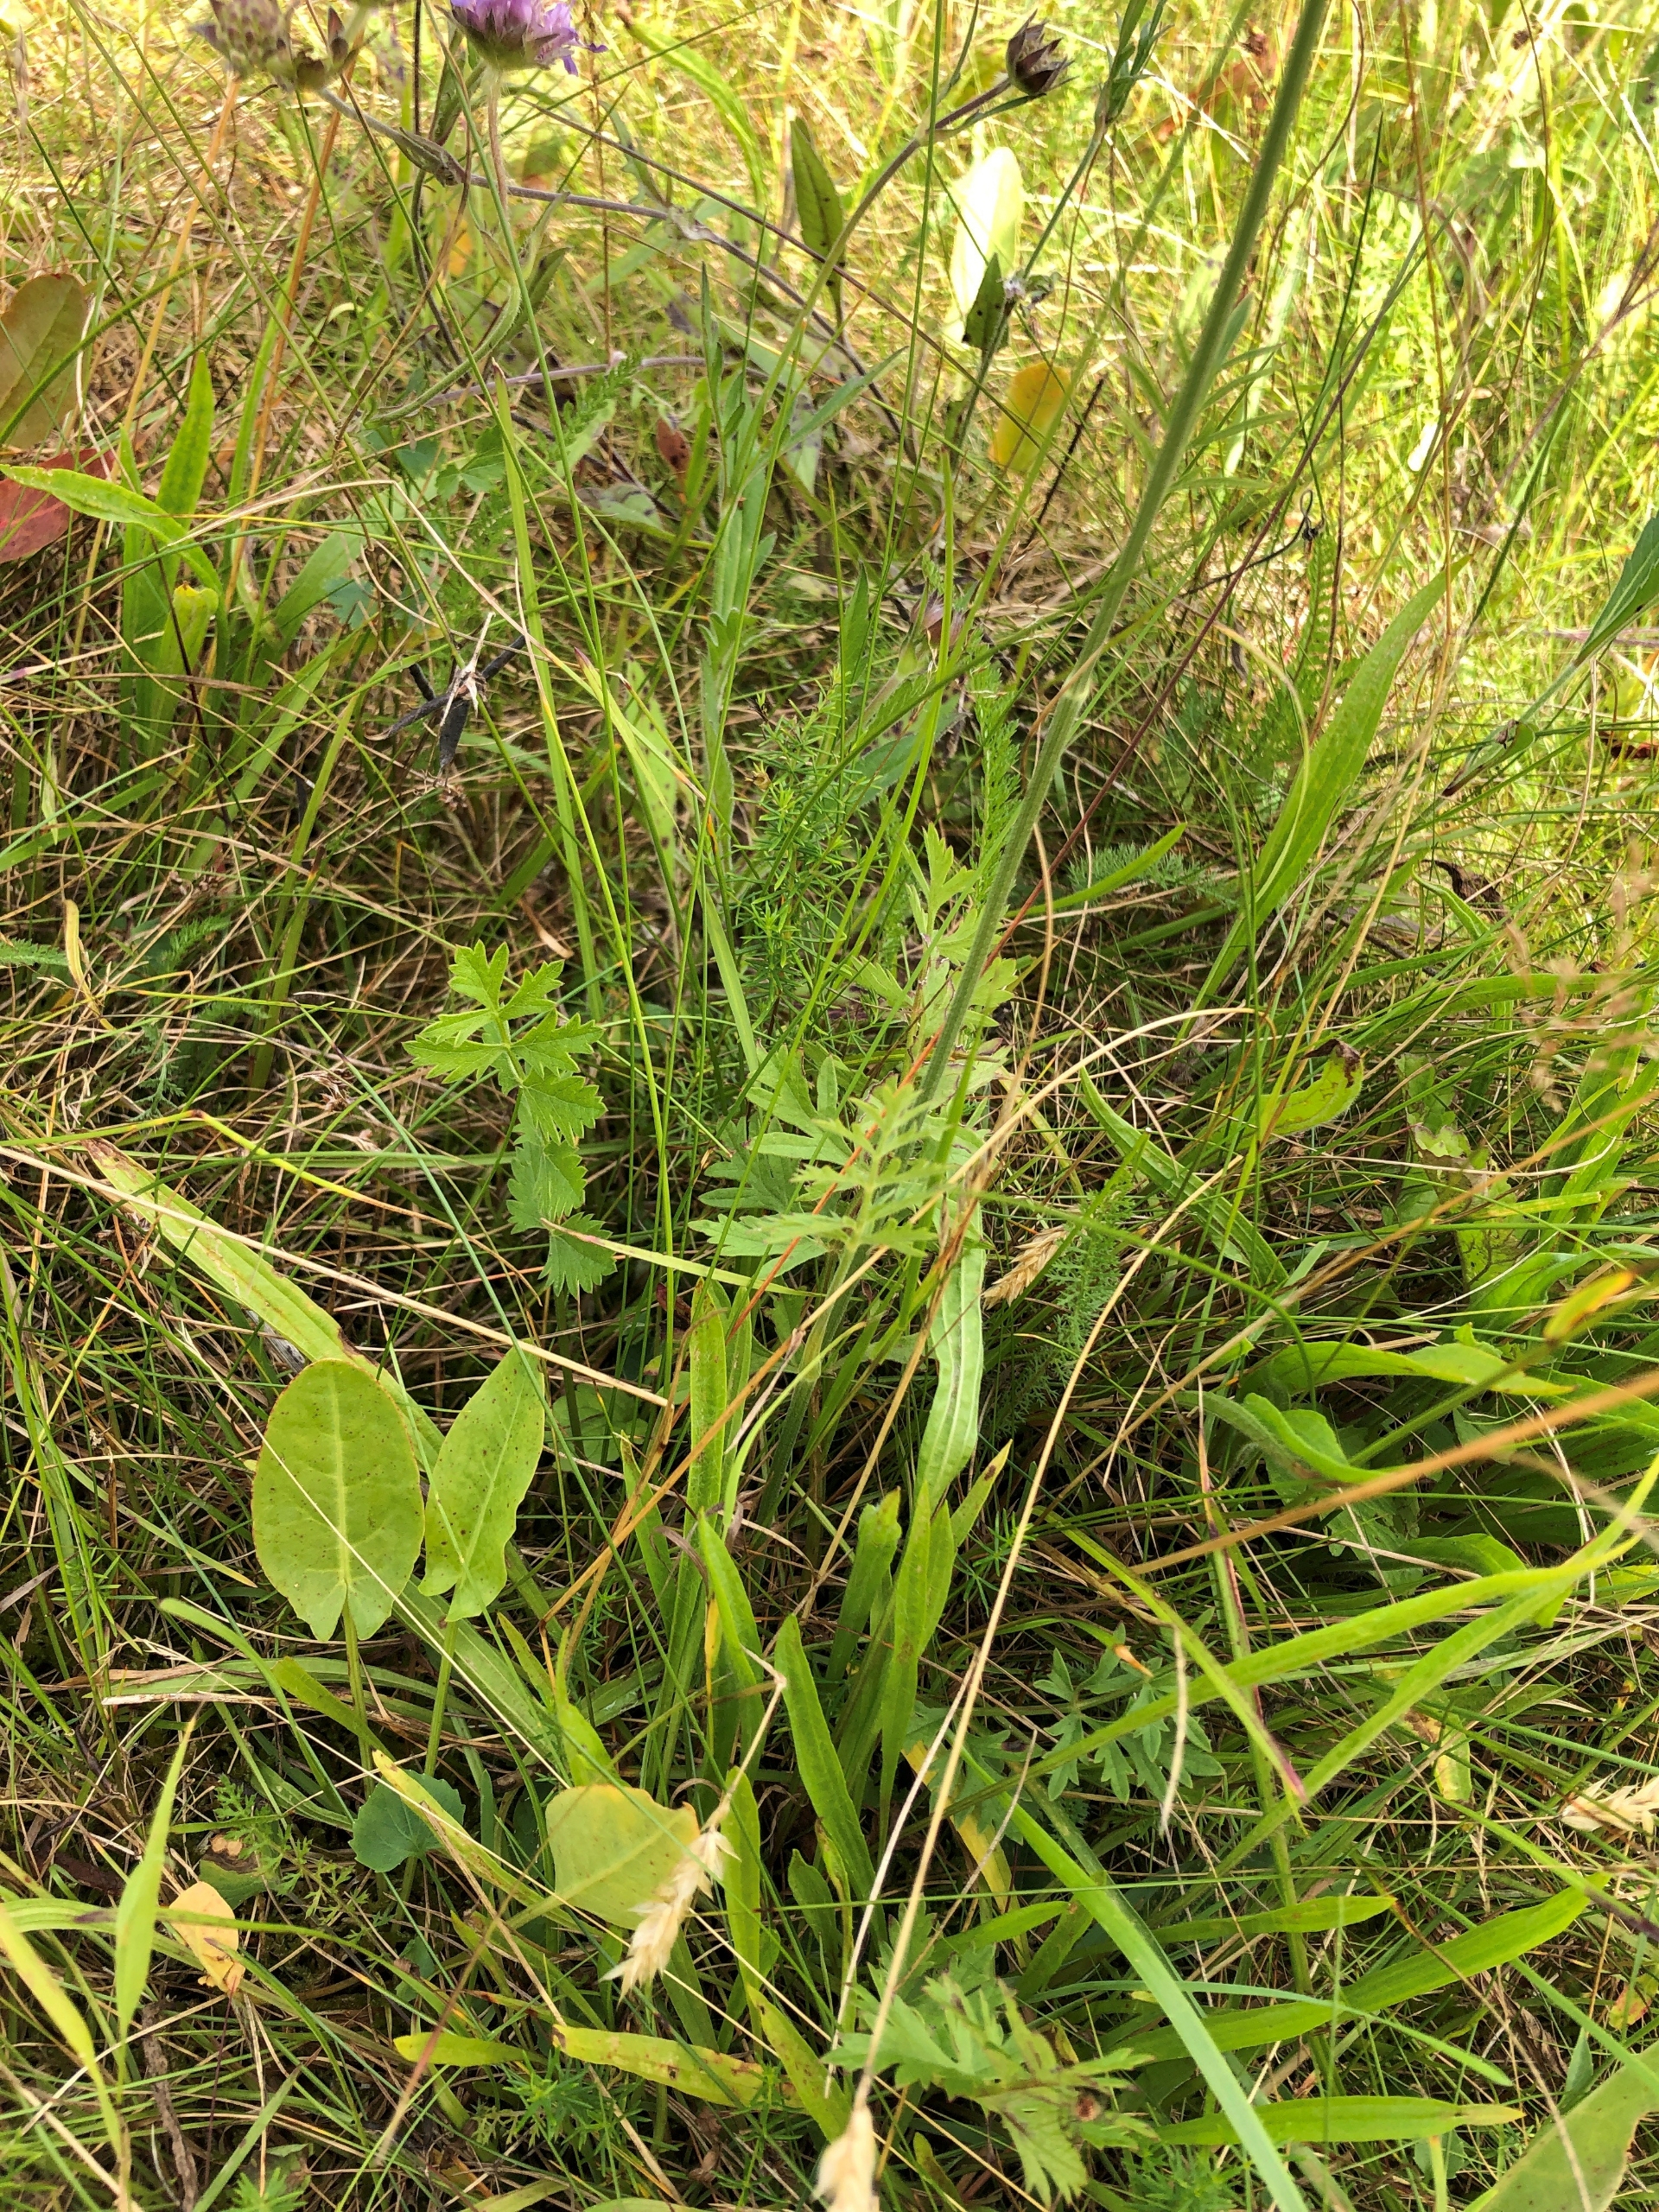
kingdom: Plantae
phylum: Tracheophyta
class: Magnoliopsida
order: Apiales
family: Apiaceae
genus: Pimpinella
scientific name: Pimpinella saxifraga
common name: Almindelig pimpinelle (underart)
